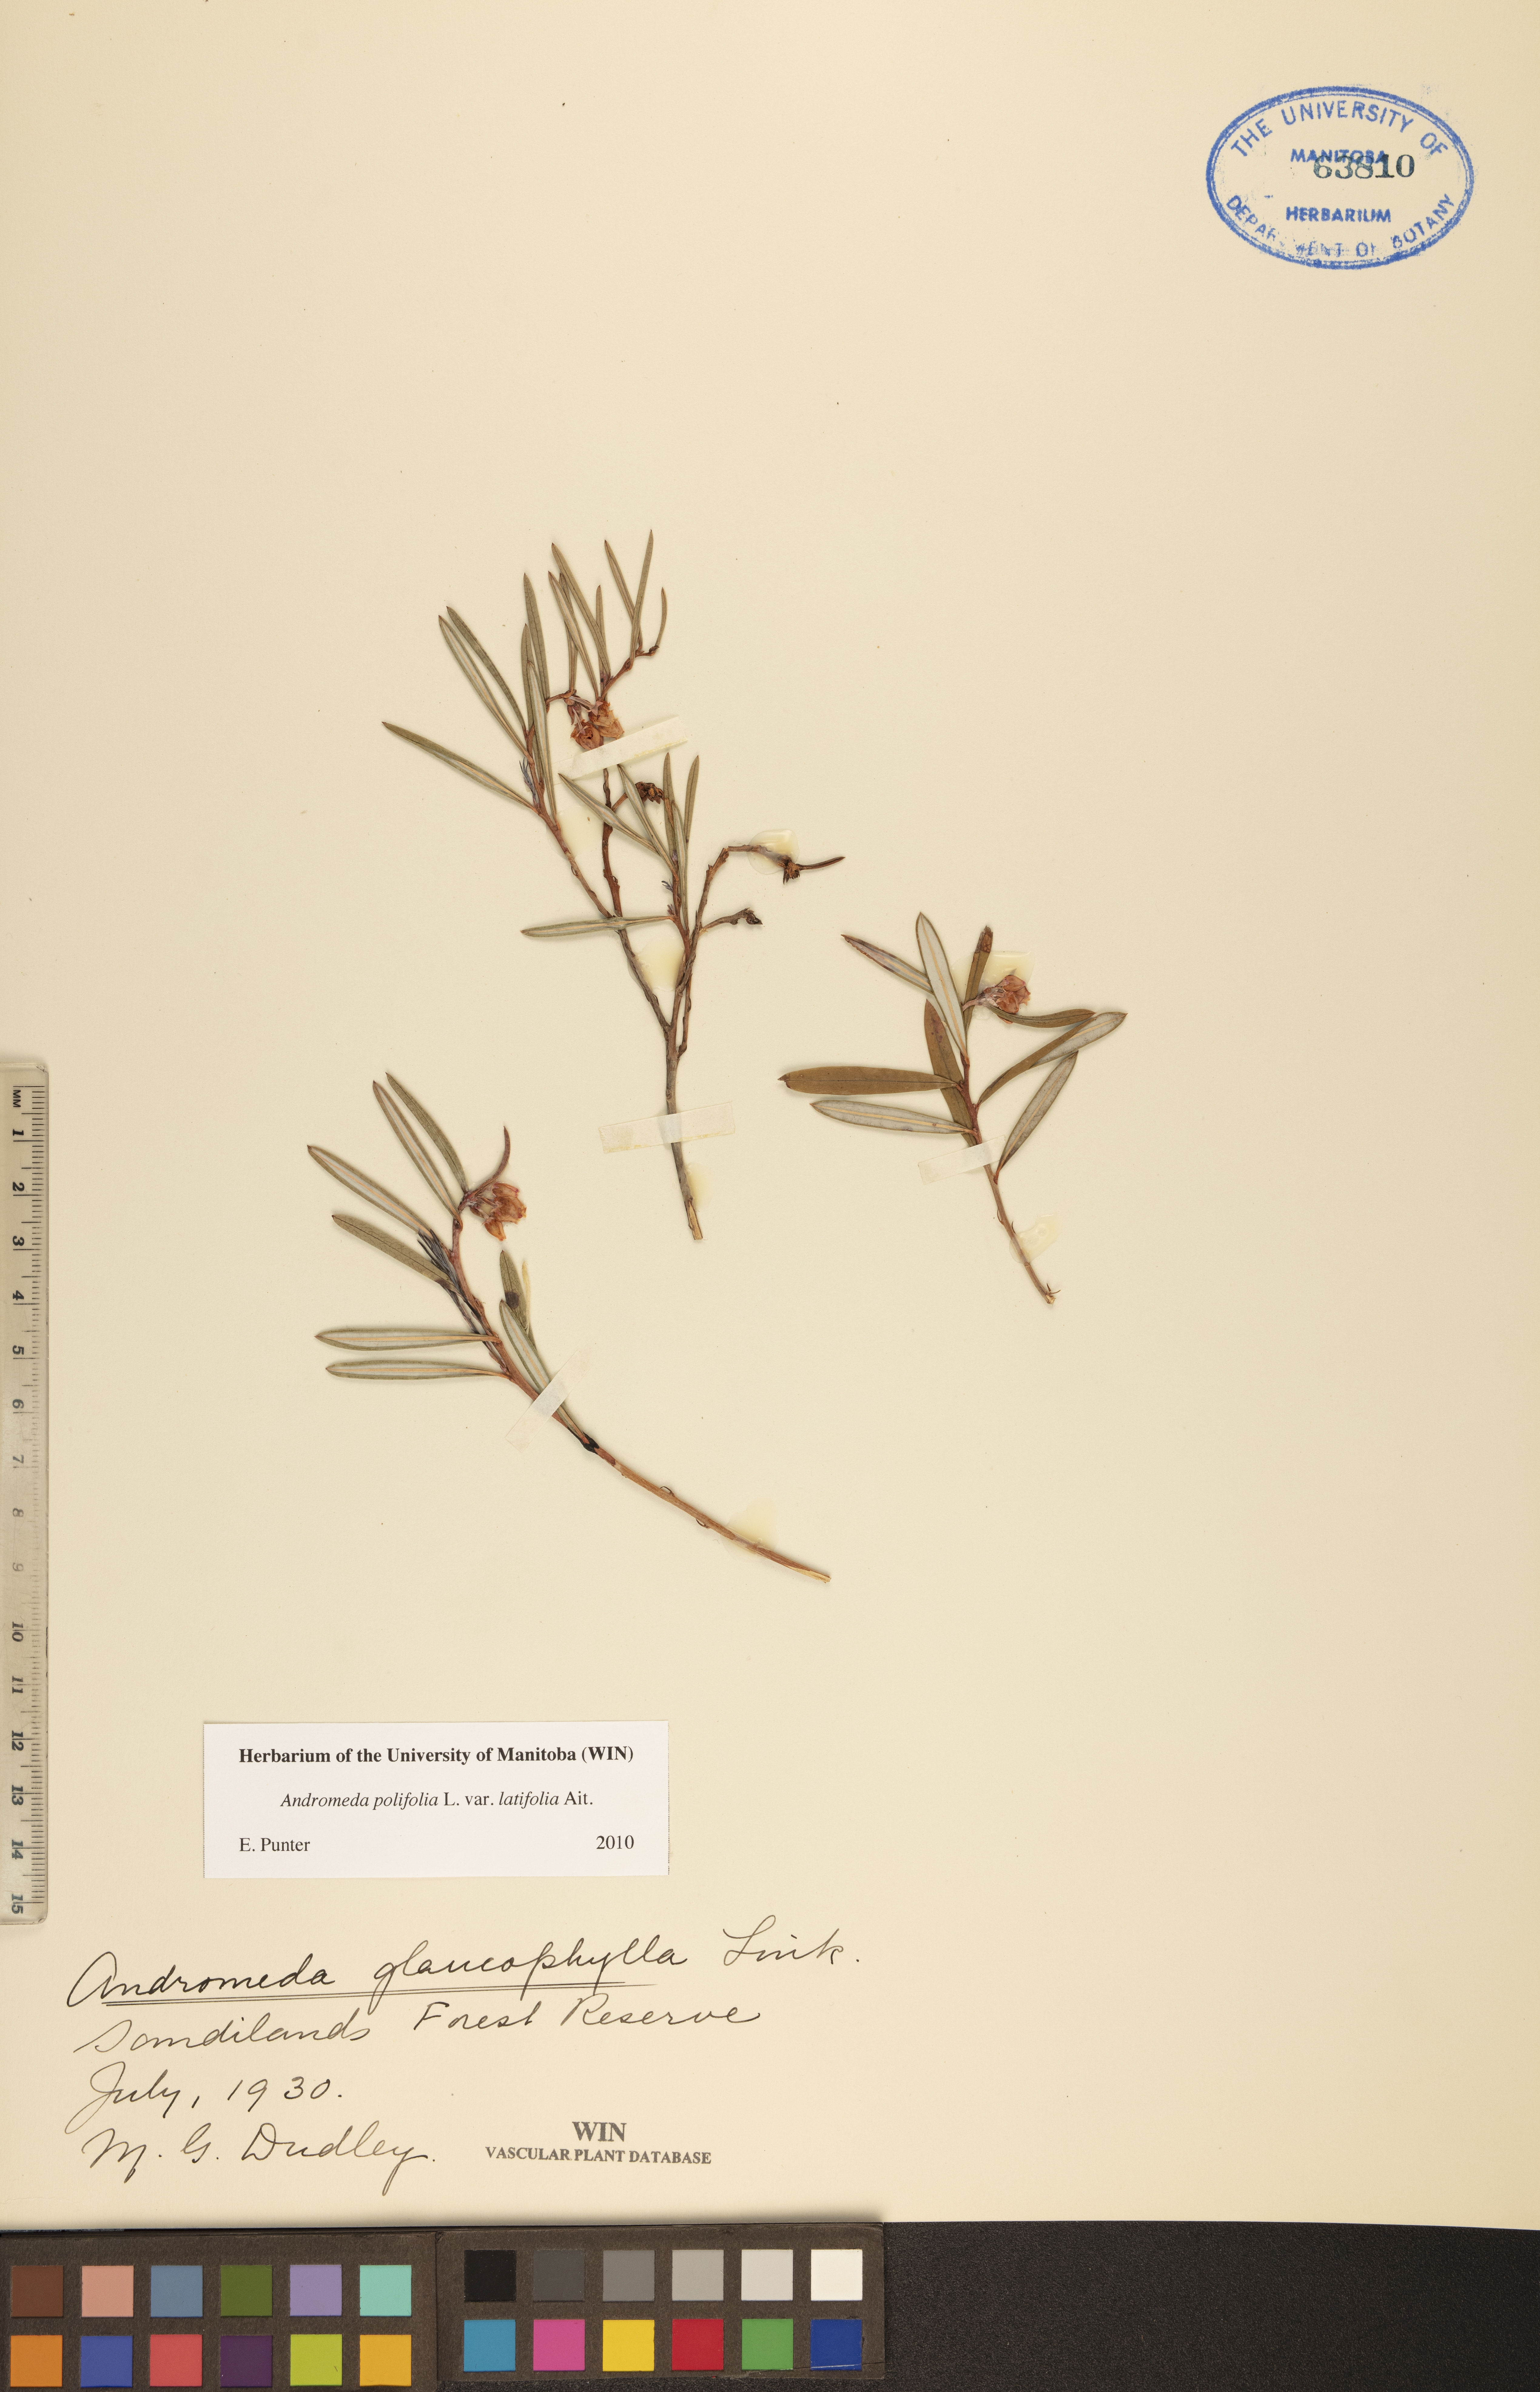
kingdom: Plantae
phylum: Tracheophyta
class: Magnoliopsida
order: Ericales
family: Ericaceae
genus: Andromeda
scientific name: Andromeda polifolia
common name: Bog-rosemary
